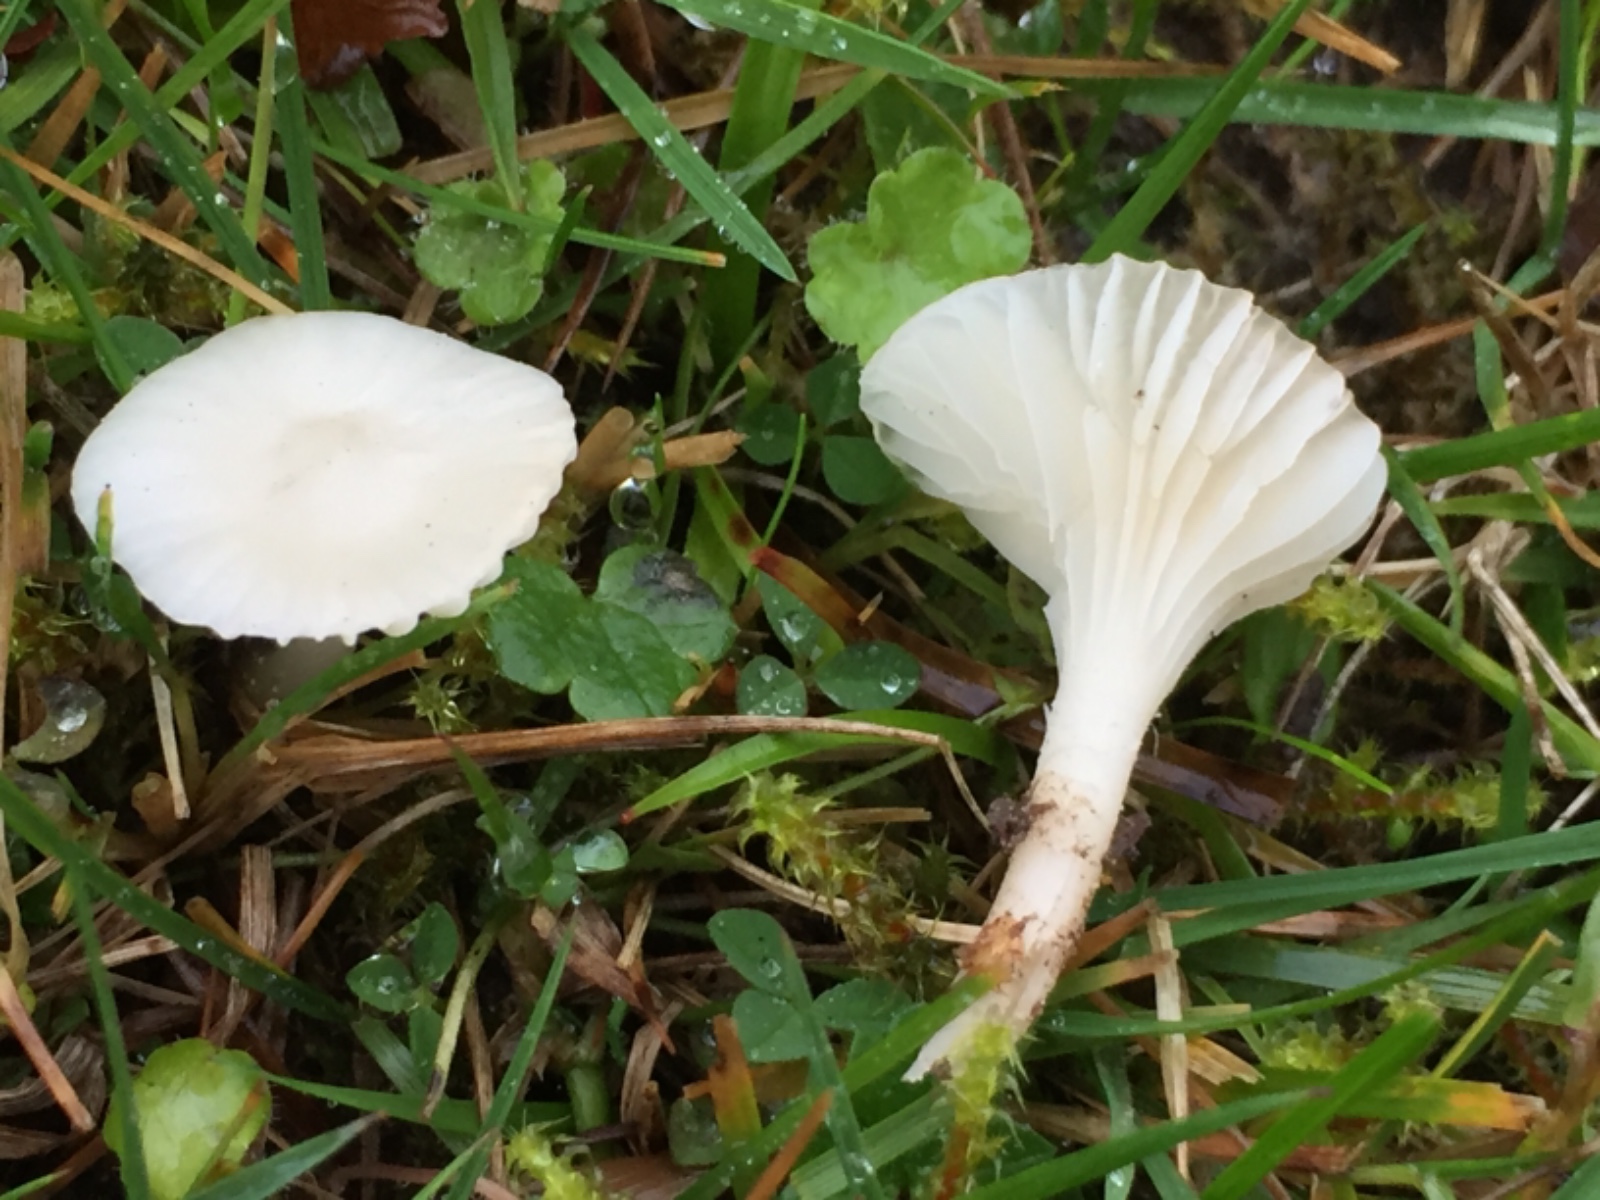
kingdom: Fungi
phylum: Basidiomycota
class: Agaricomycetes
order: Agaricales
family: Hygrophoraceae
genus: Cuphophyllus
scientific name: Cuphophyllus virgineus
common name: snehvid vokshat
